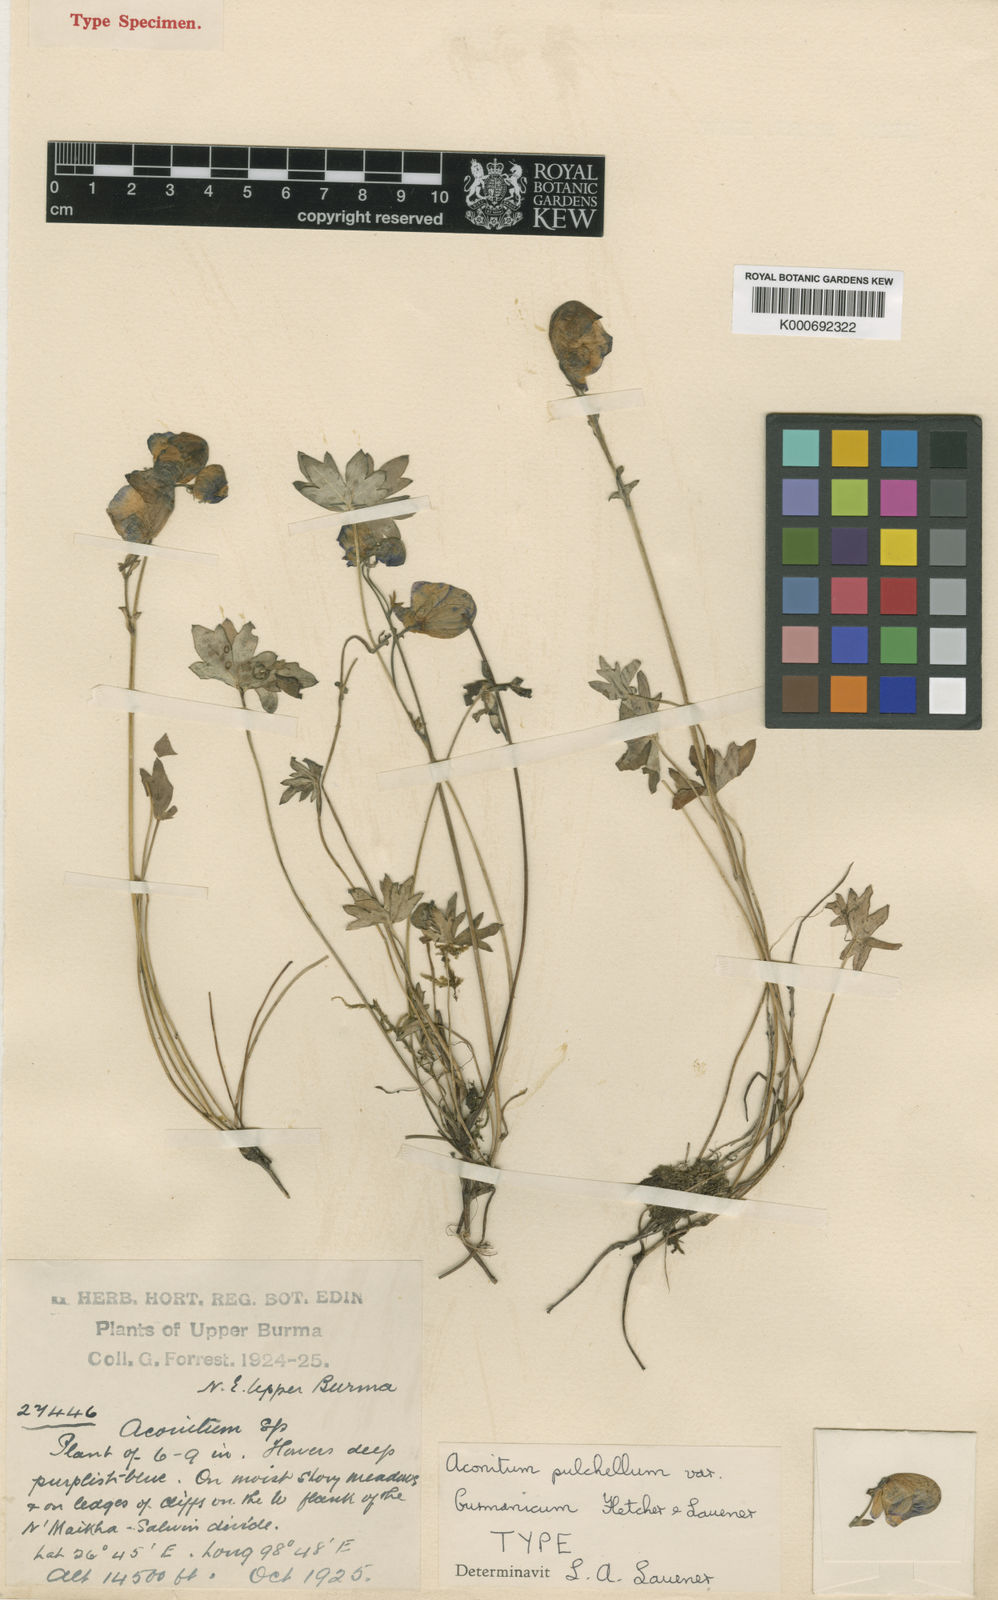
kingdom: Plantae
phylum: Tracheophyta
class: Magnoliopsida
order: Ranunculales
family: Ranunculaceae
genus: Aconitum
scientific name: Aconitum pulchellum
